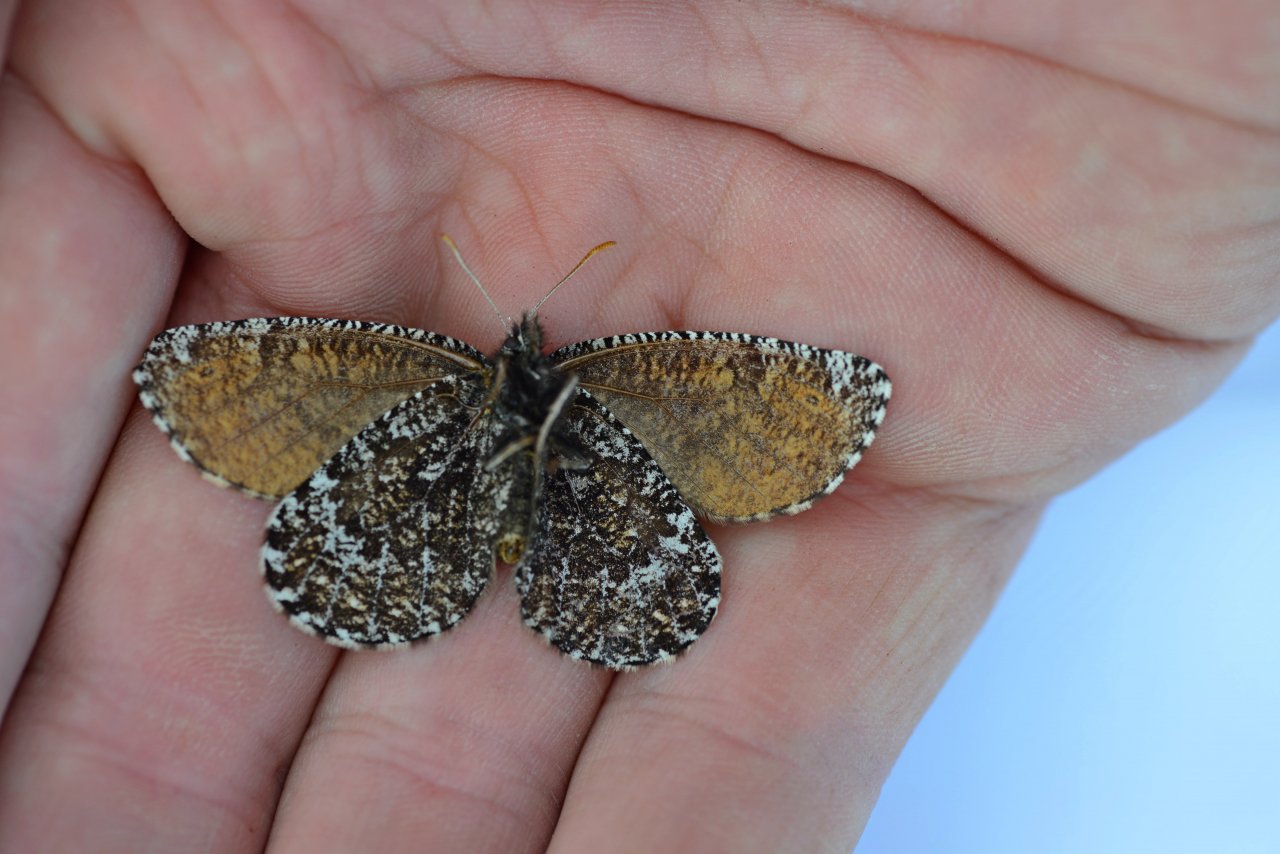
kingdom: Animalia
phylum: Arthropoda
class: Insecta
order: Lepidoptera
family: Nymphalidae
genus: Oeneis
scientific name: Oeneis melissa
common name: Melissa Arctic
